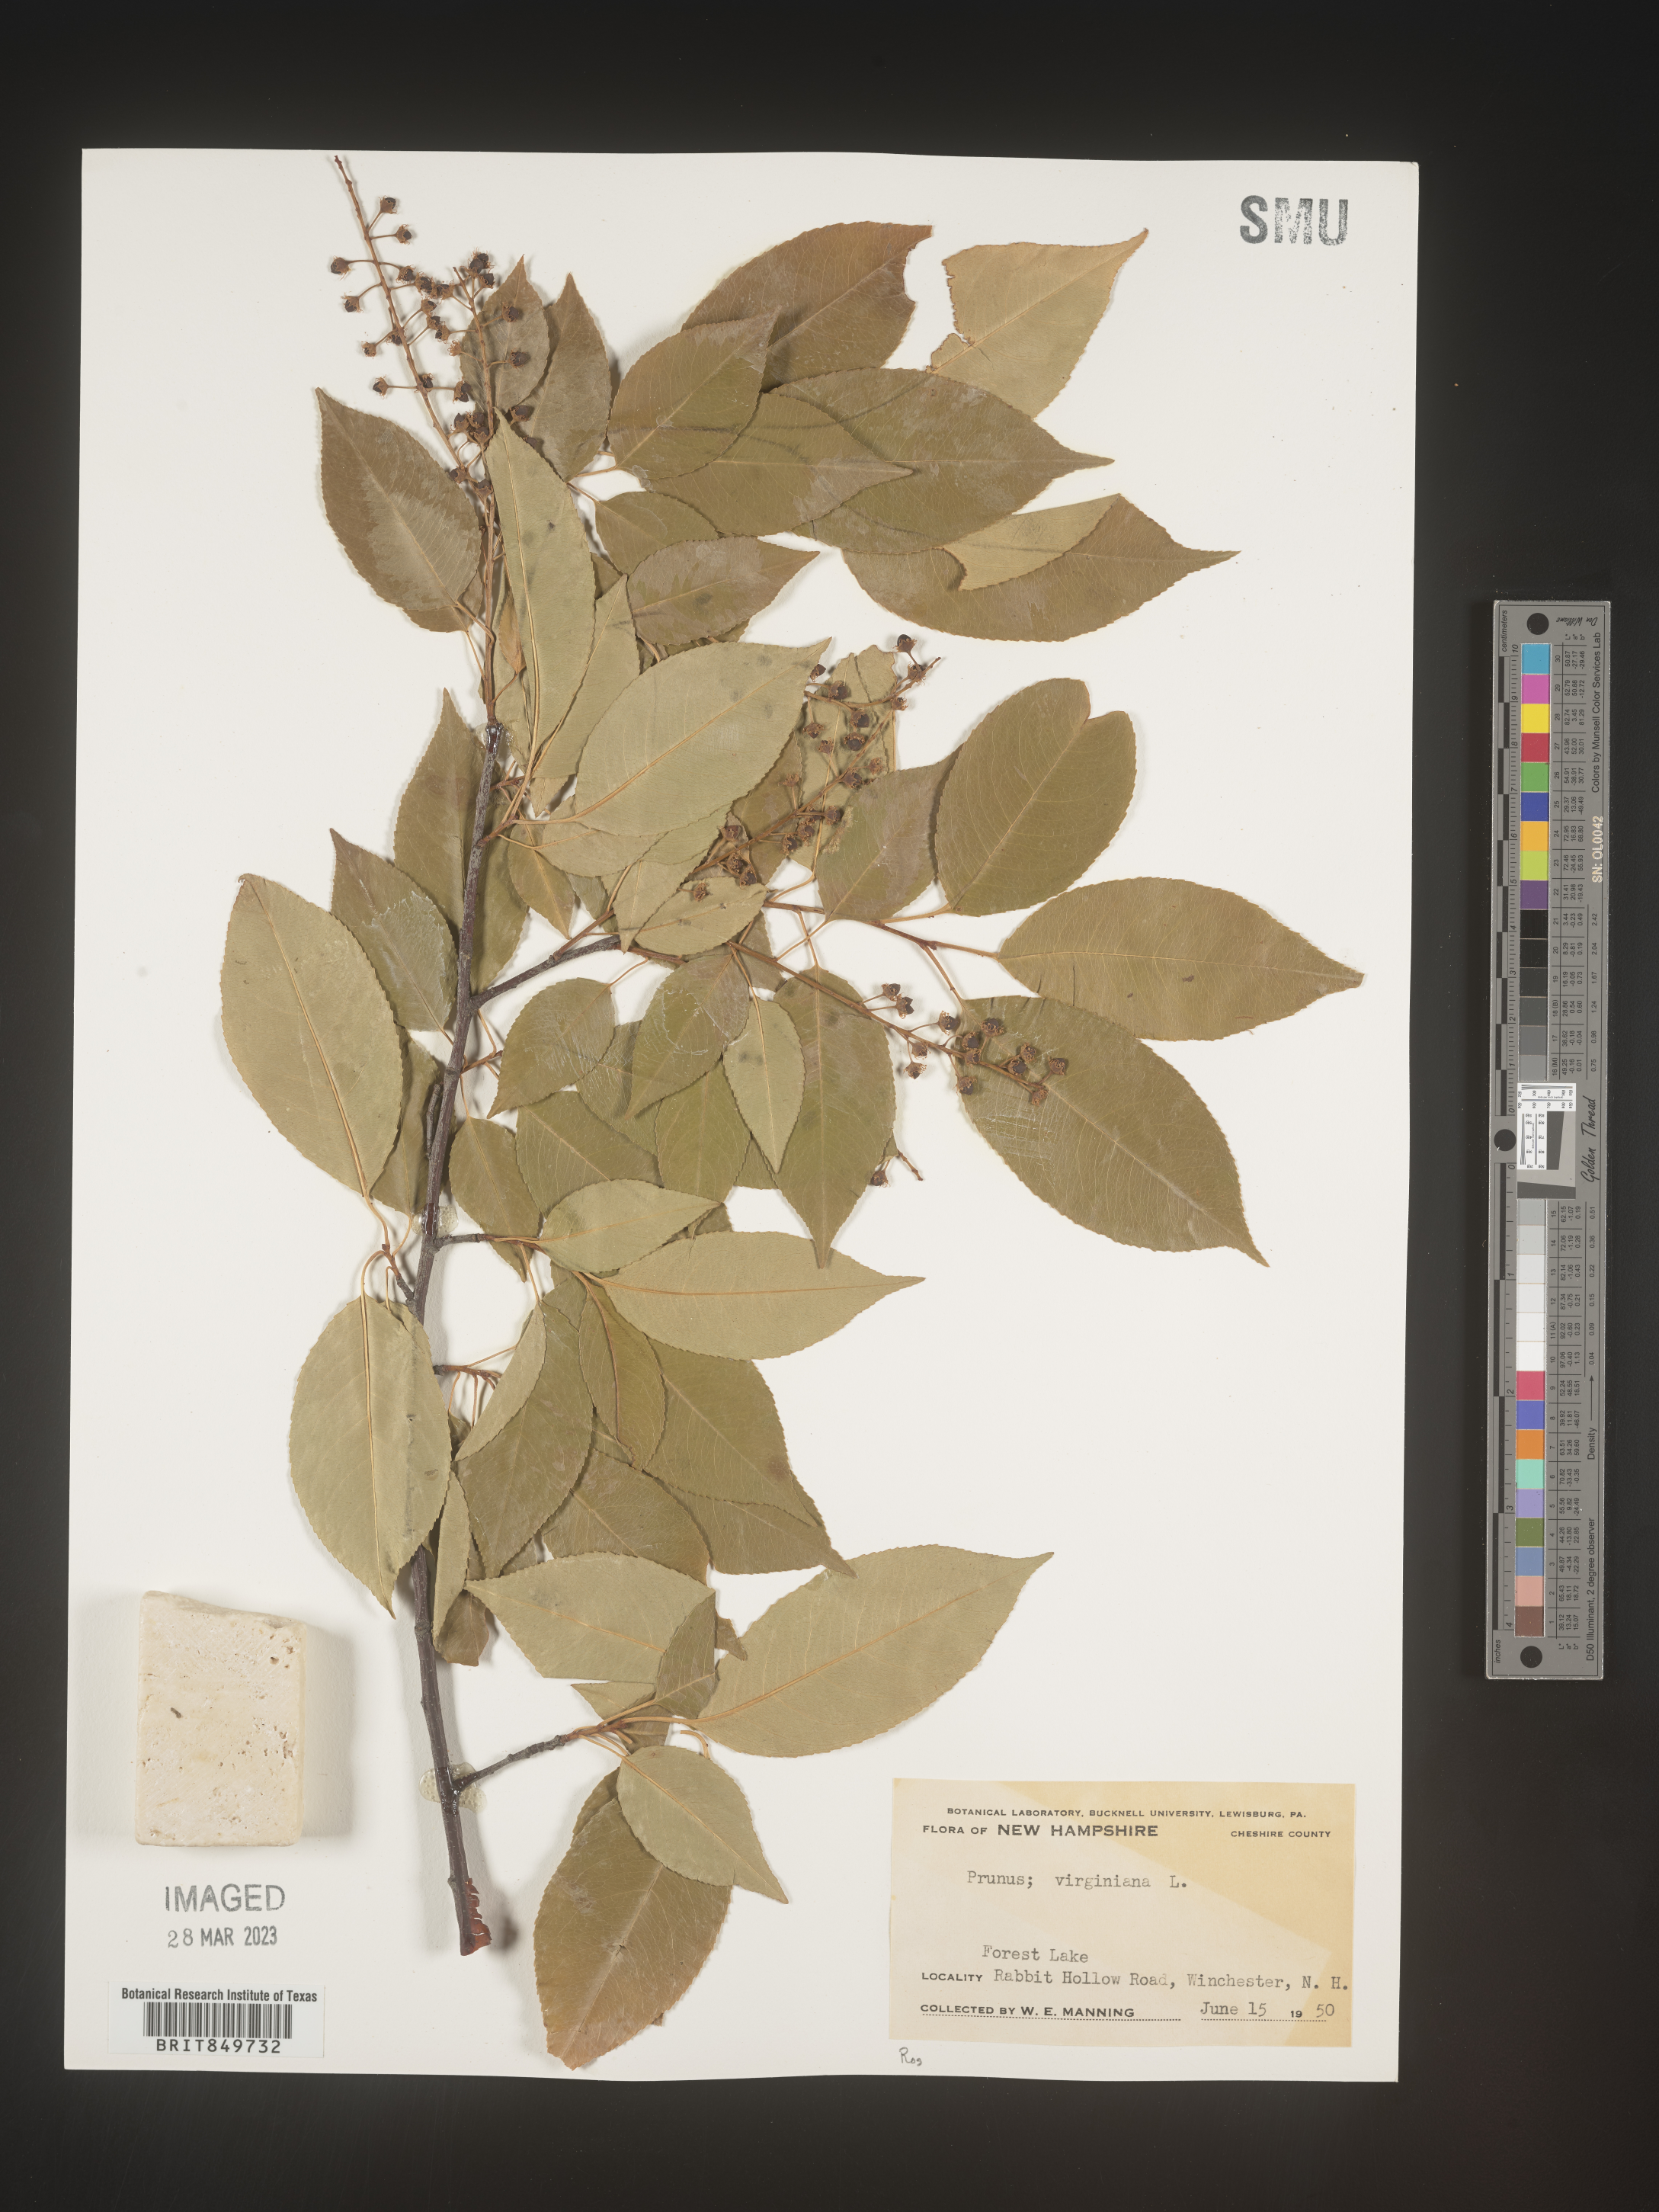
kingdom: Plantae
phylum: Tracheophyta
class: Magnoliopsida
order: Rosales
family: Rosaceae
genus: Prunus
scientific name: Prunus virginiana
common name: Chokecherry
